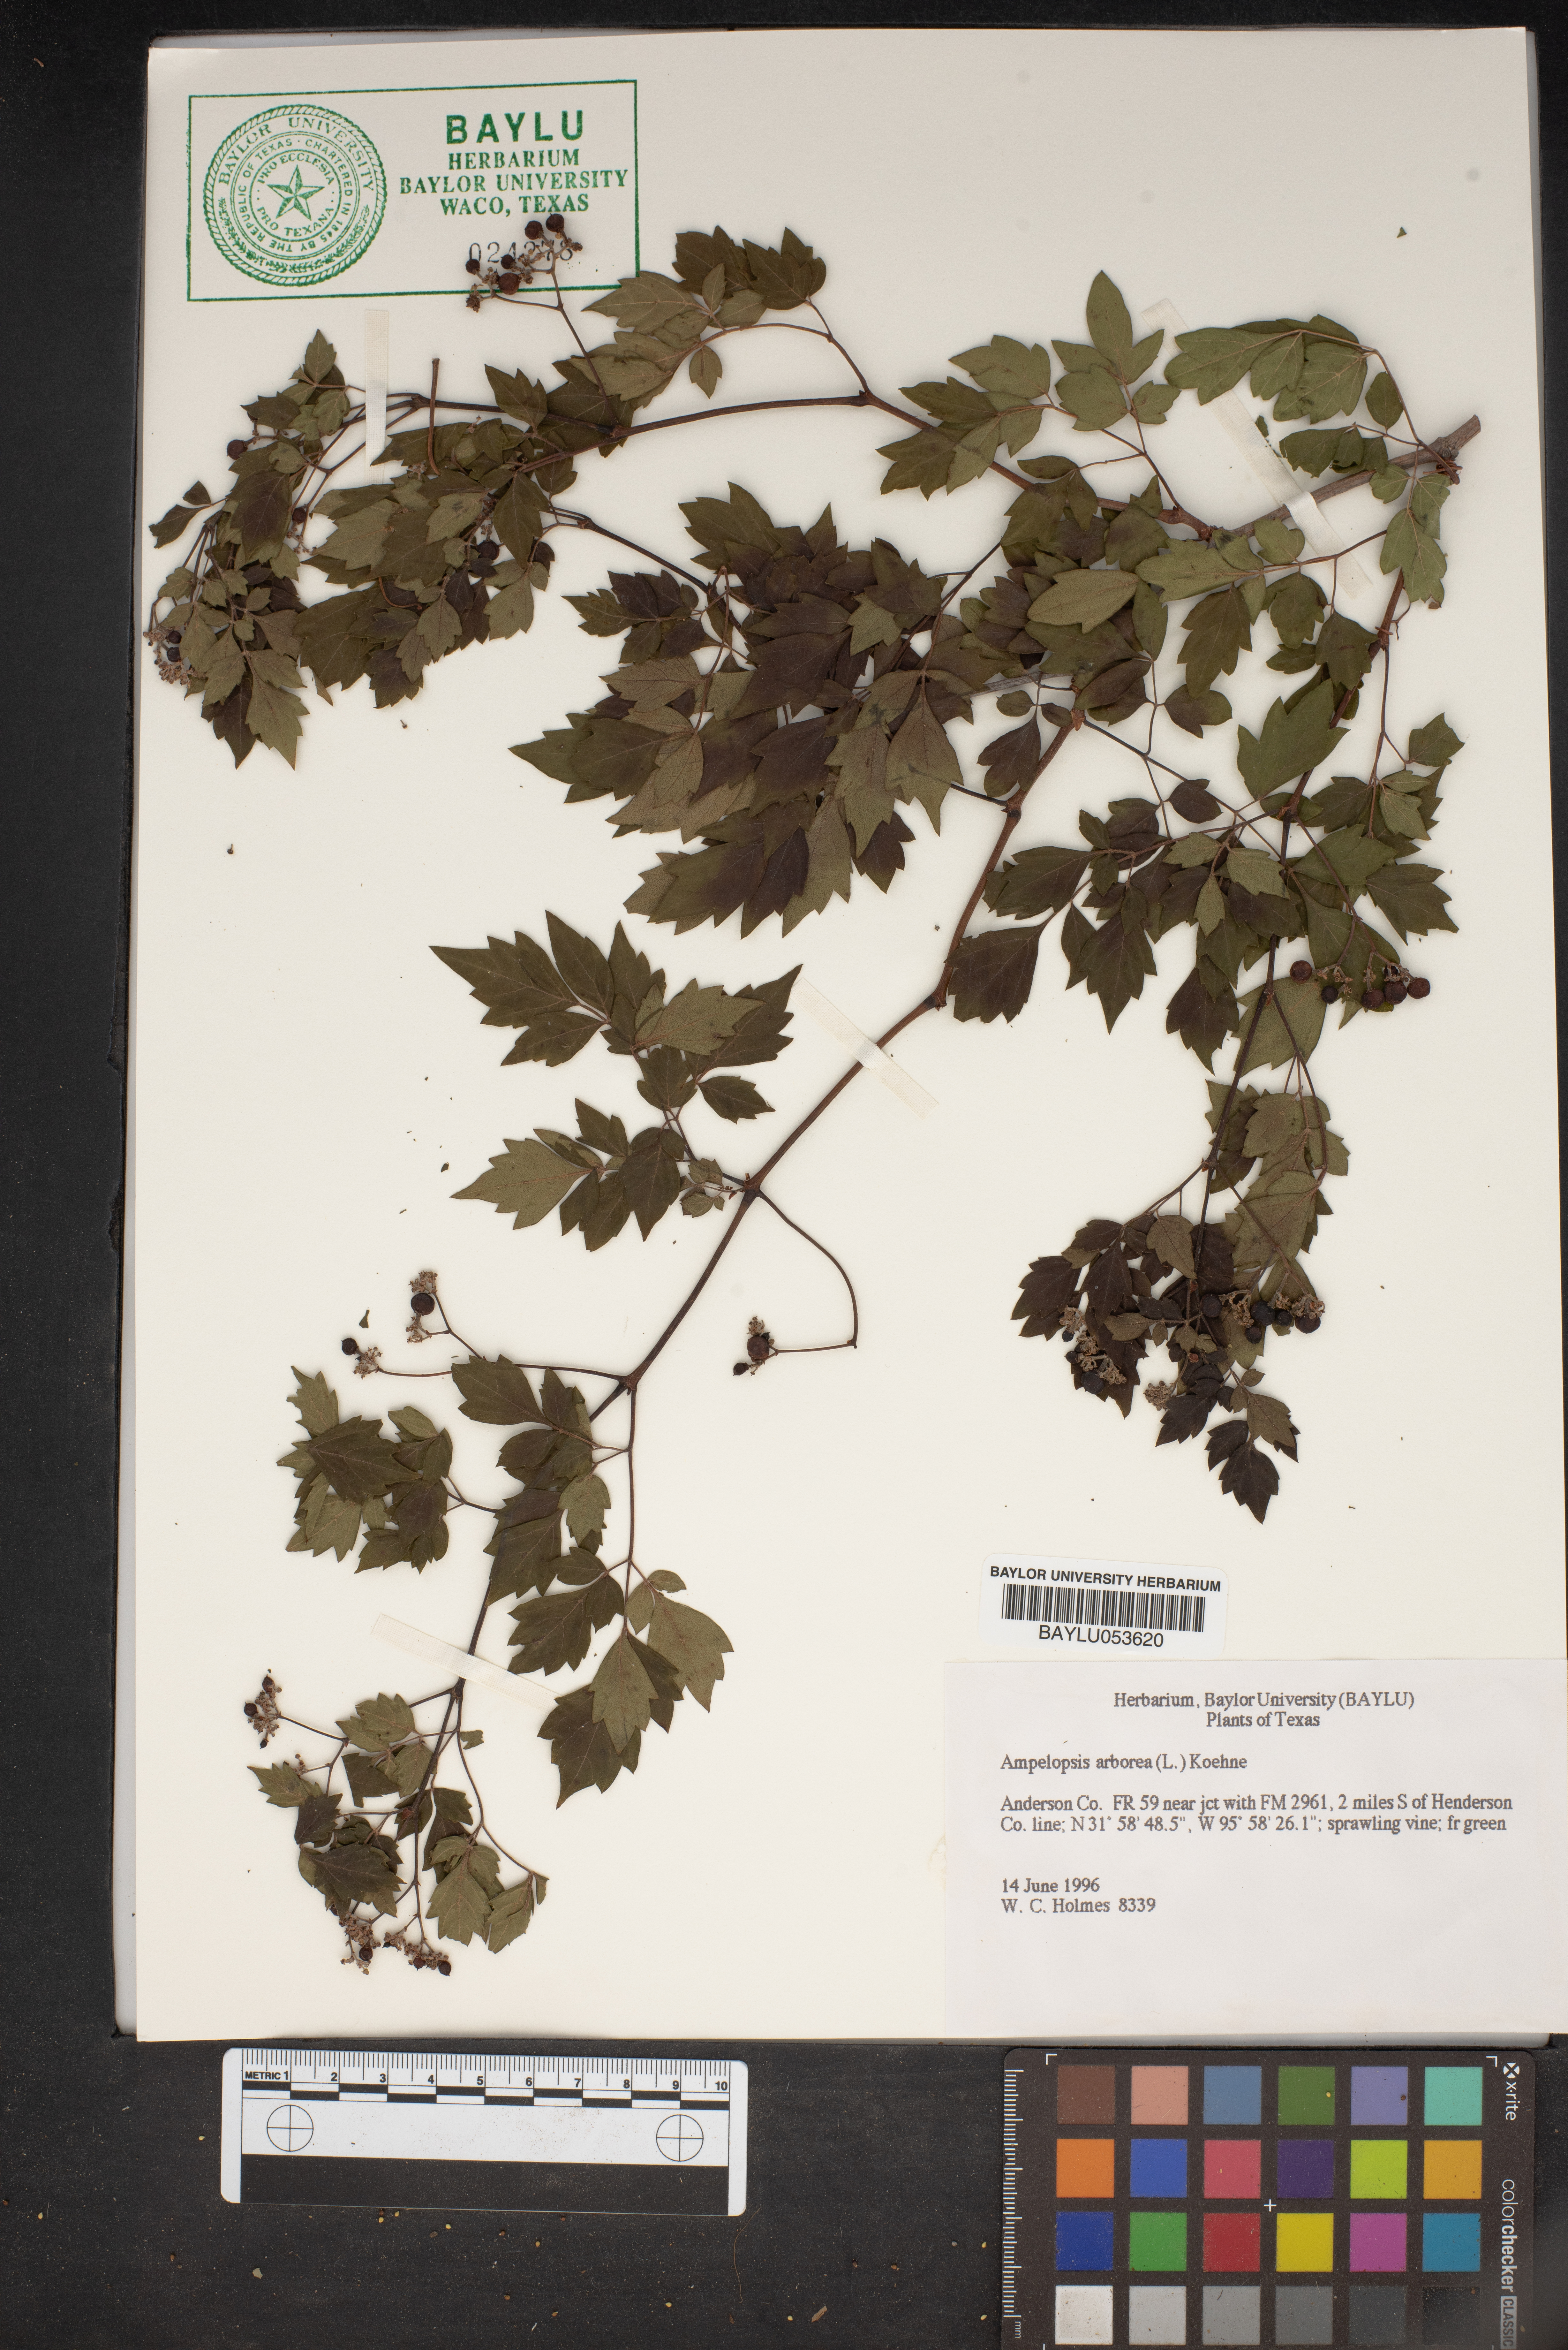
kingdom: Plantae
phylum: Tracheophyta
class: Magnoliopsida
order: Vitales
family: Vitaceae
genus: Nekemias
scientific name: Nekemias arborea
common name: Peppervine
